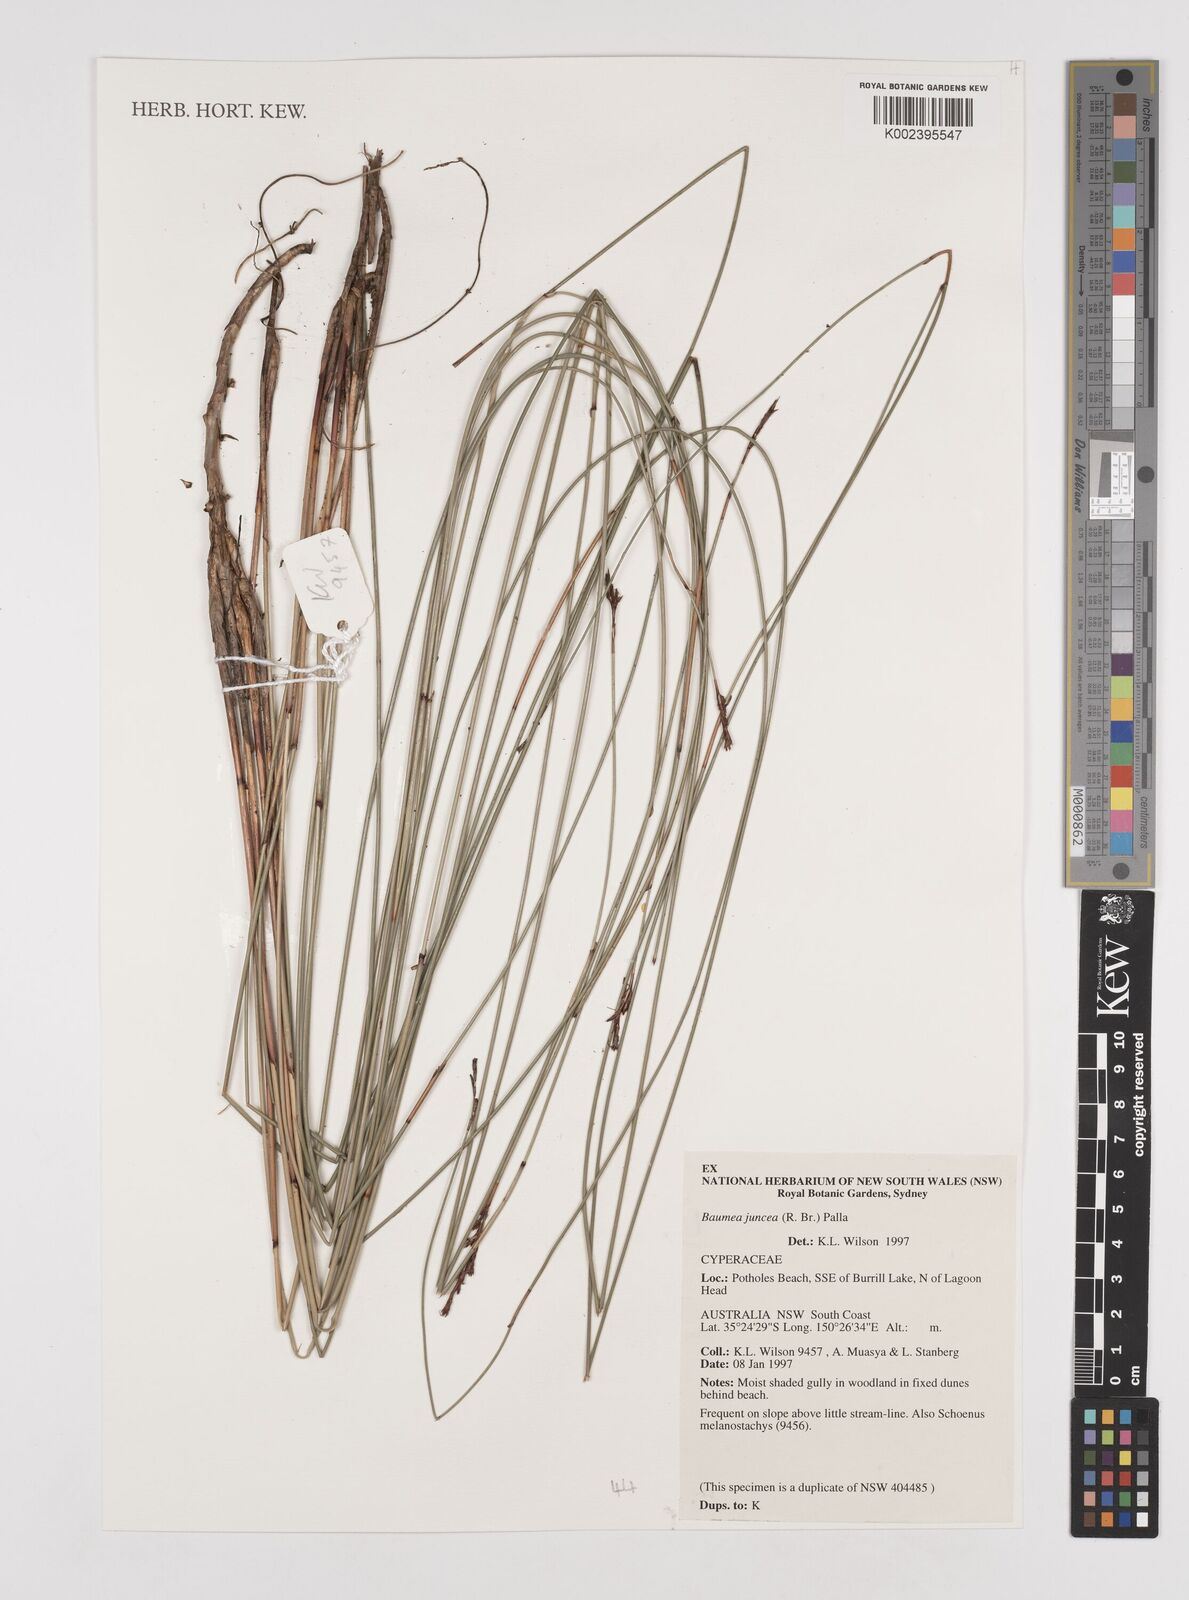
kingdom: Plantae
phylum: Tracheophyta
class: Liliopsida
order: Poales
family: Cyperaceae
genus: Machaerina
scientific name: Machaerina juncea
